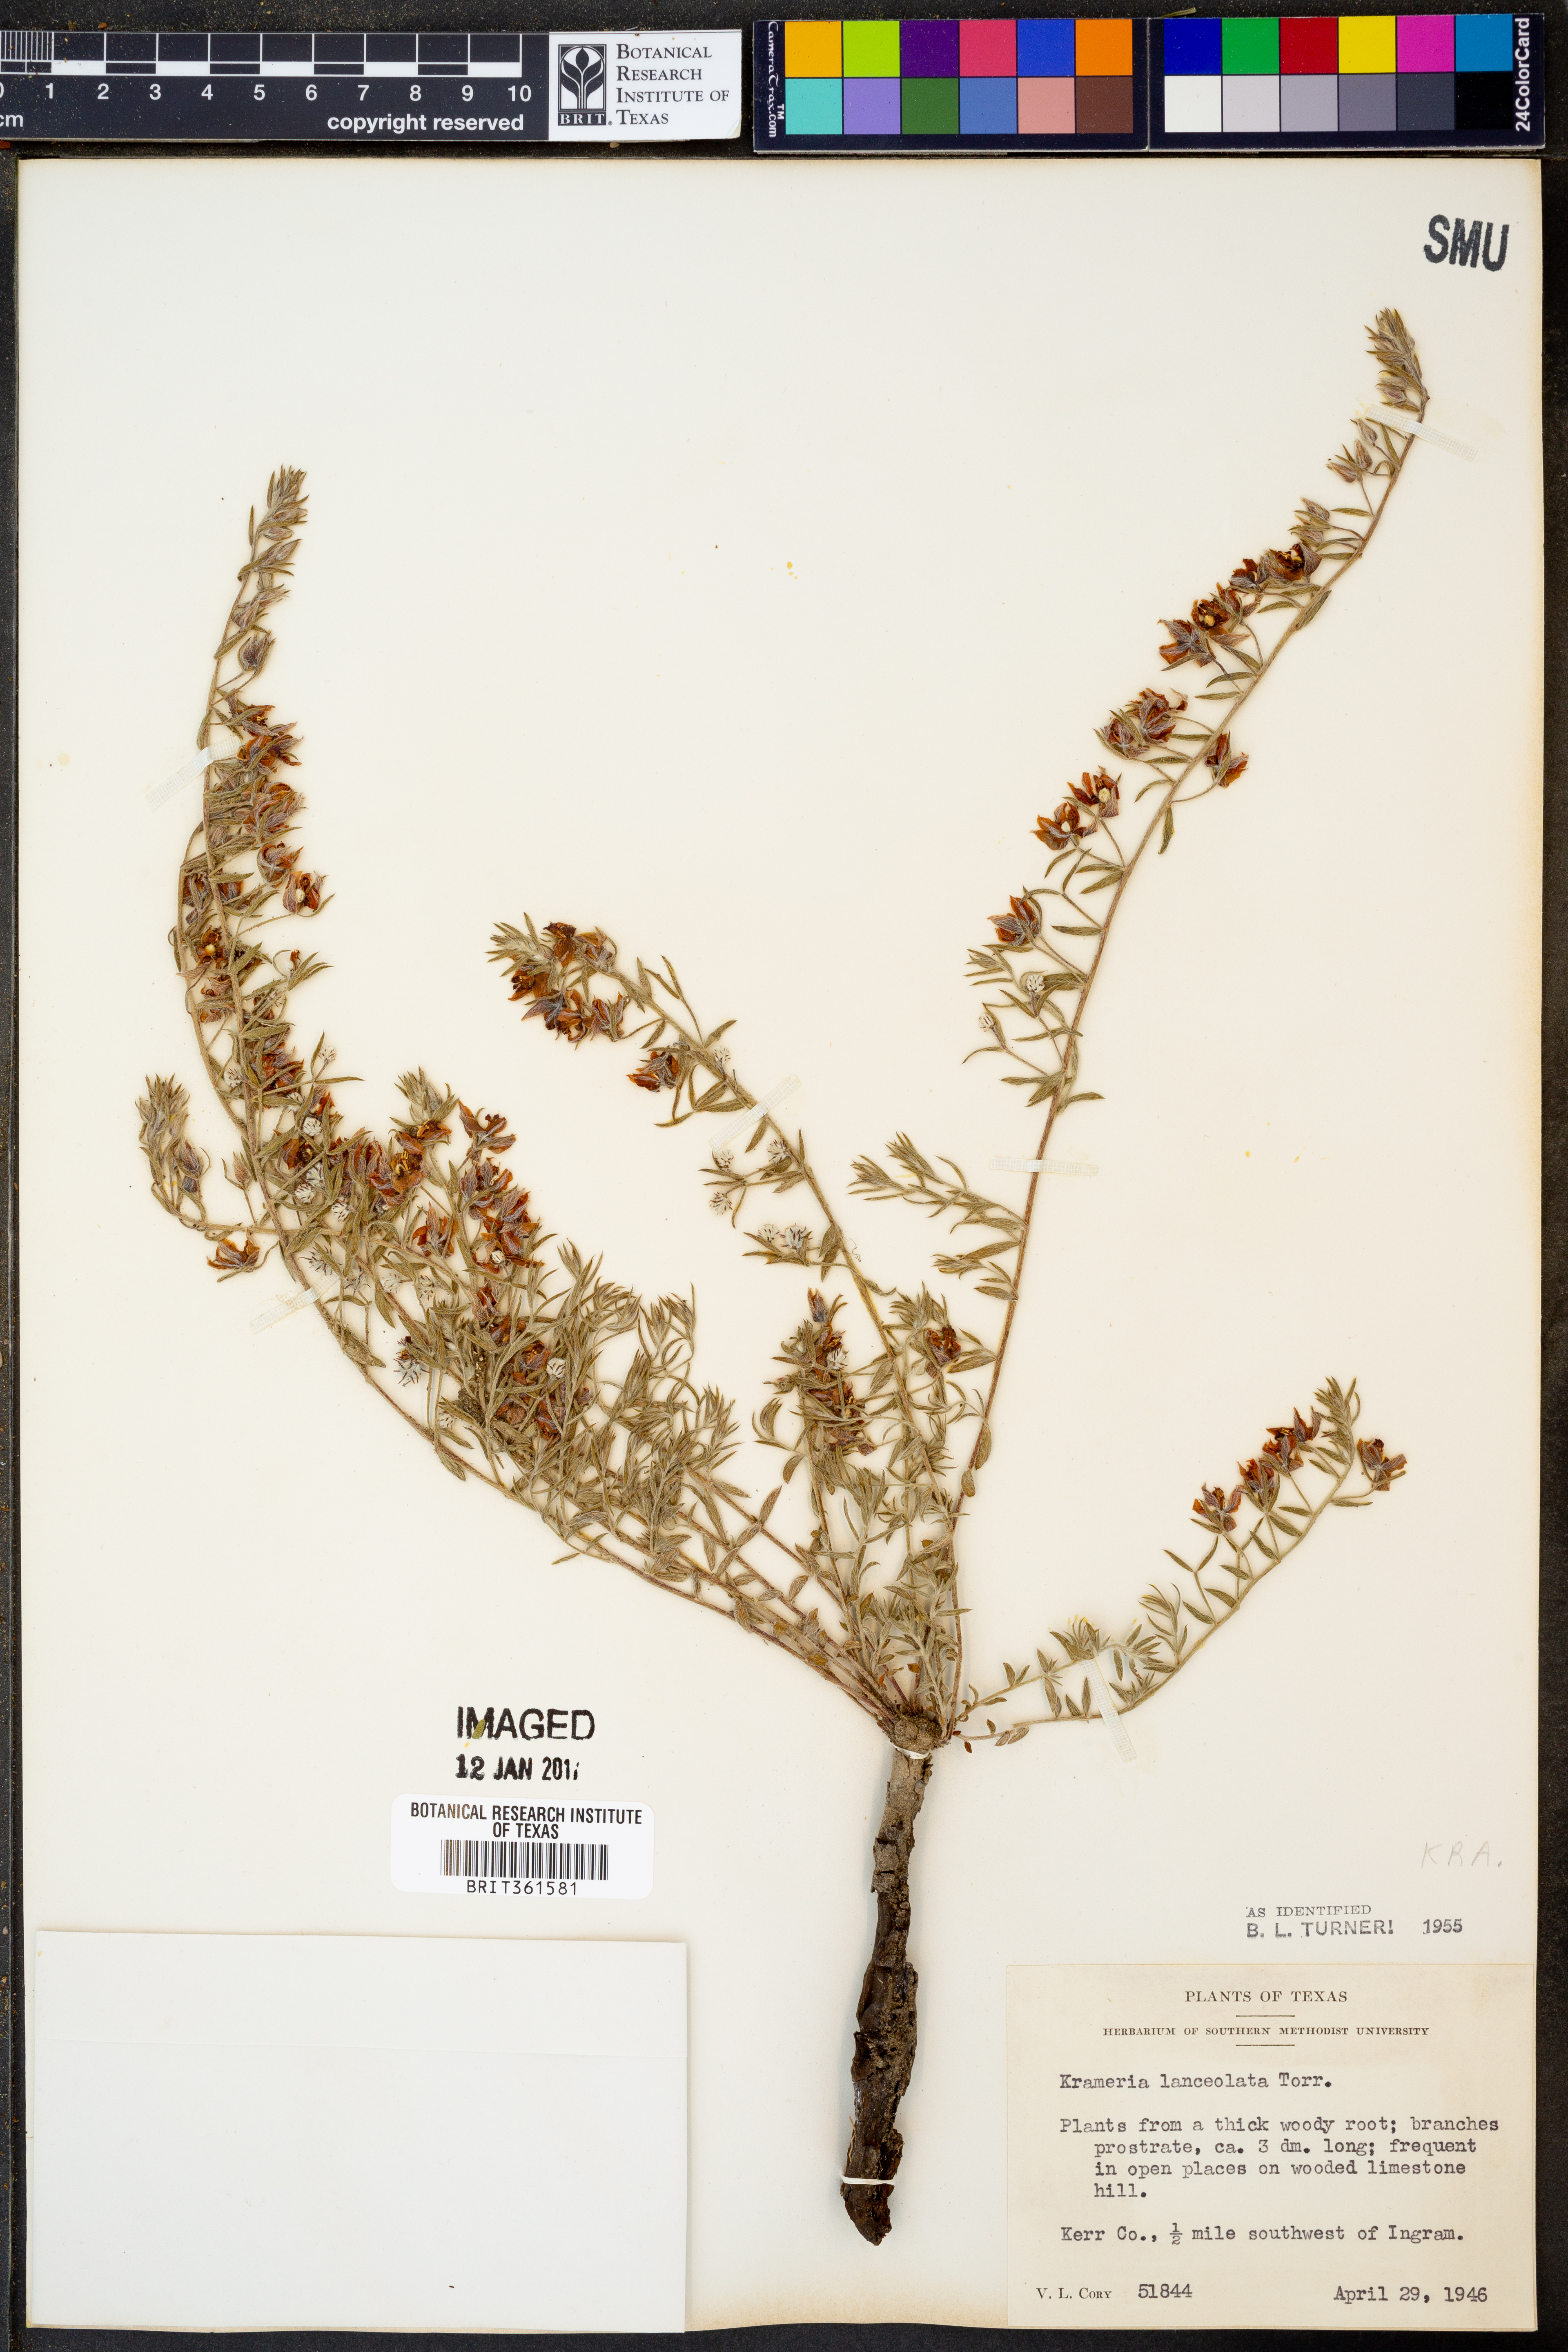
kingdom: Plantae
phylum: Tracheophyta
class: Magnoliopsida
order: Zygophyllales
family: Krameriaceae
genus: Krameria
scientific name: Krameria lanceolata
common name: Ratany
